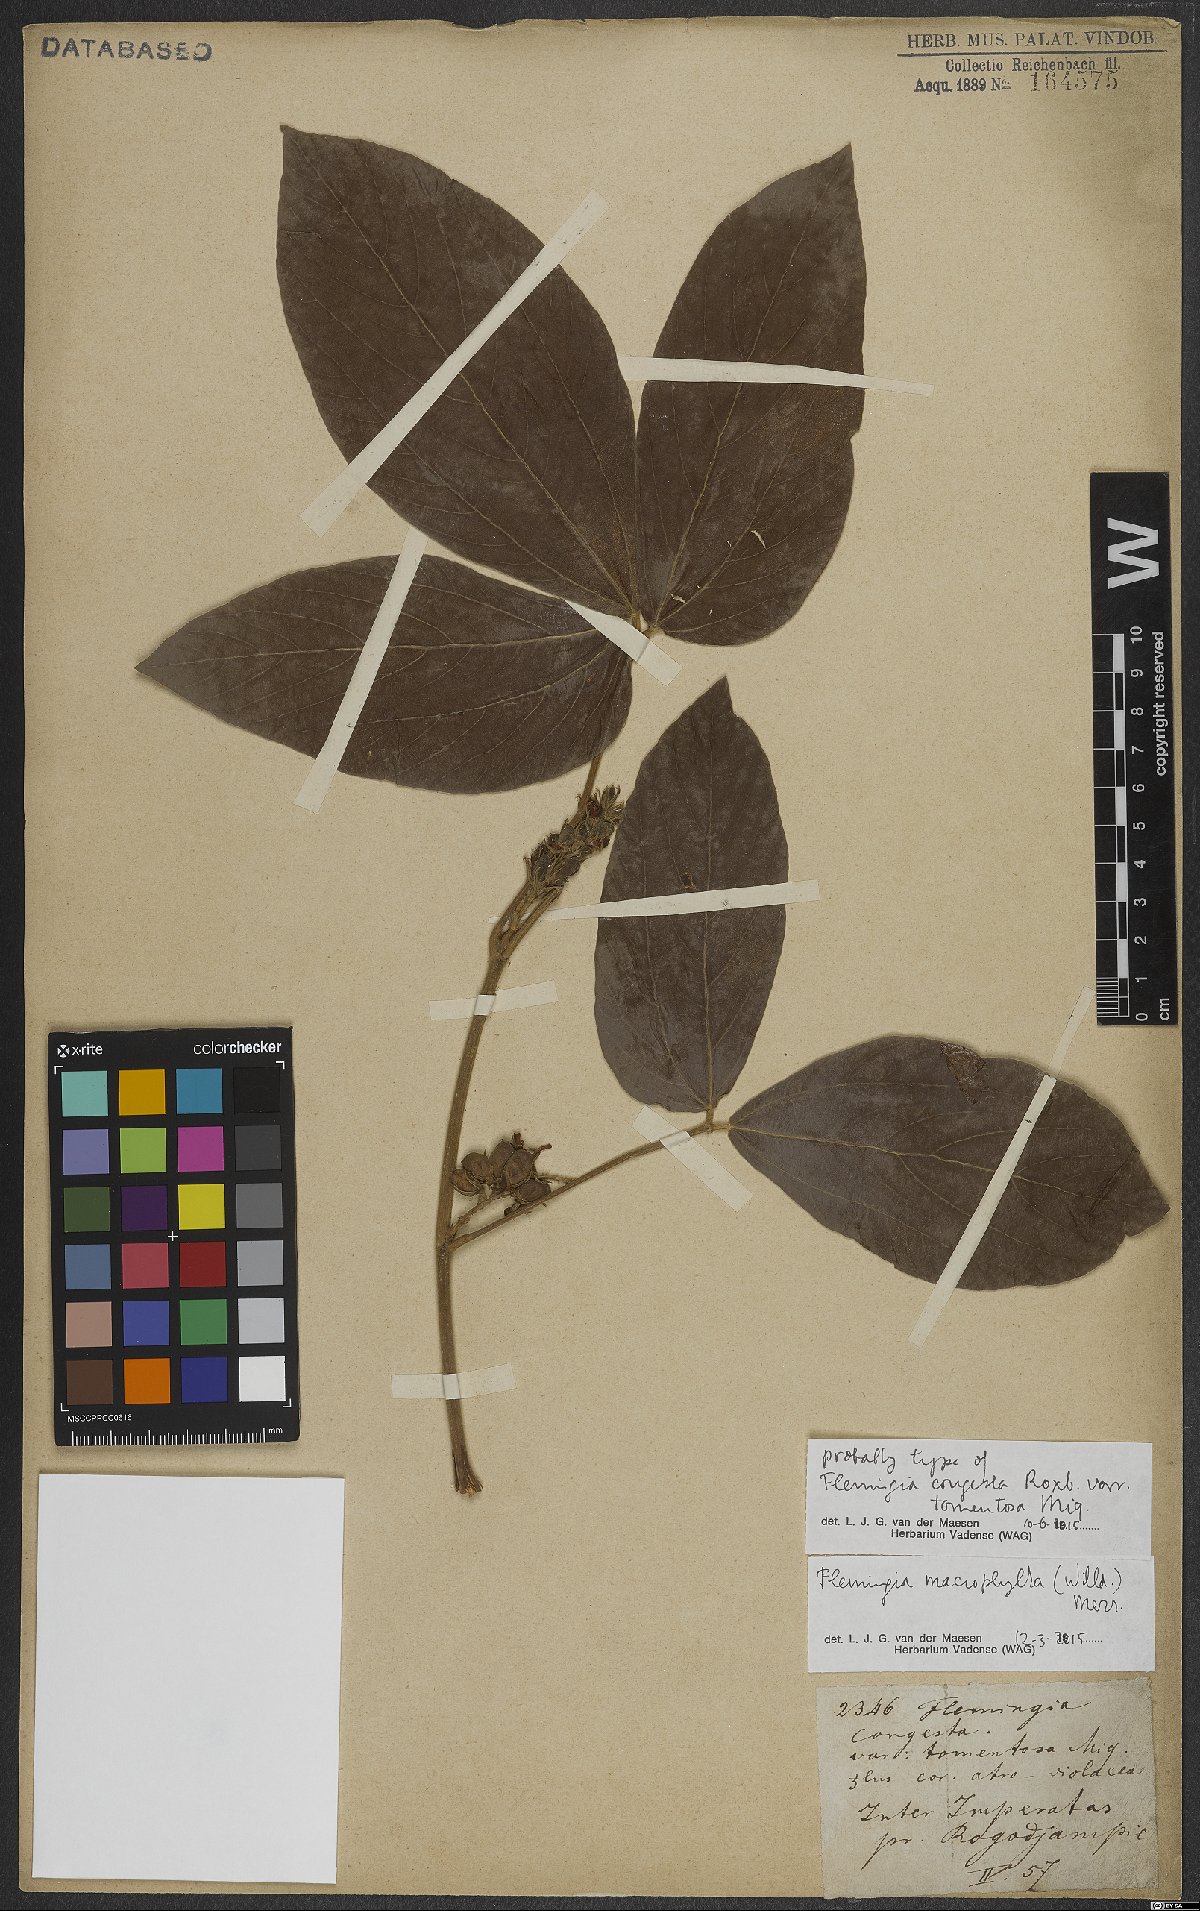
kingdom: Plantae
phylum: Tracheophyta
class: Magnoliopsida
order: Fabales
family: Fabaceae
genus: Flemingia
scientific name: Flemingia macrophylla
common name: Flemingia
